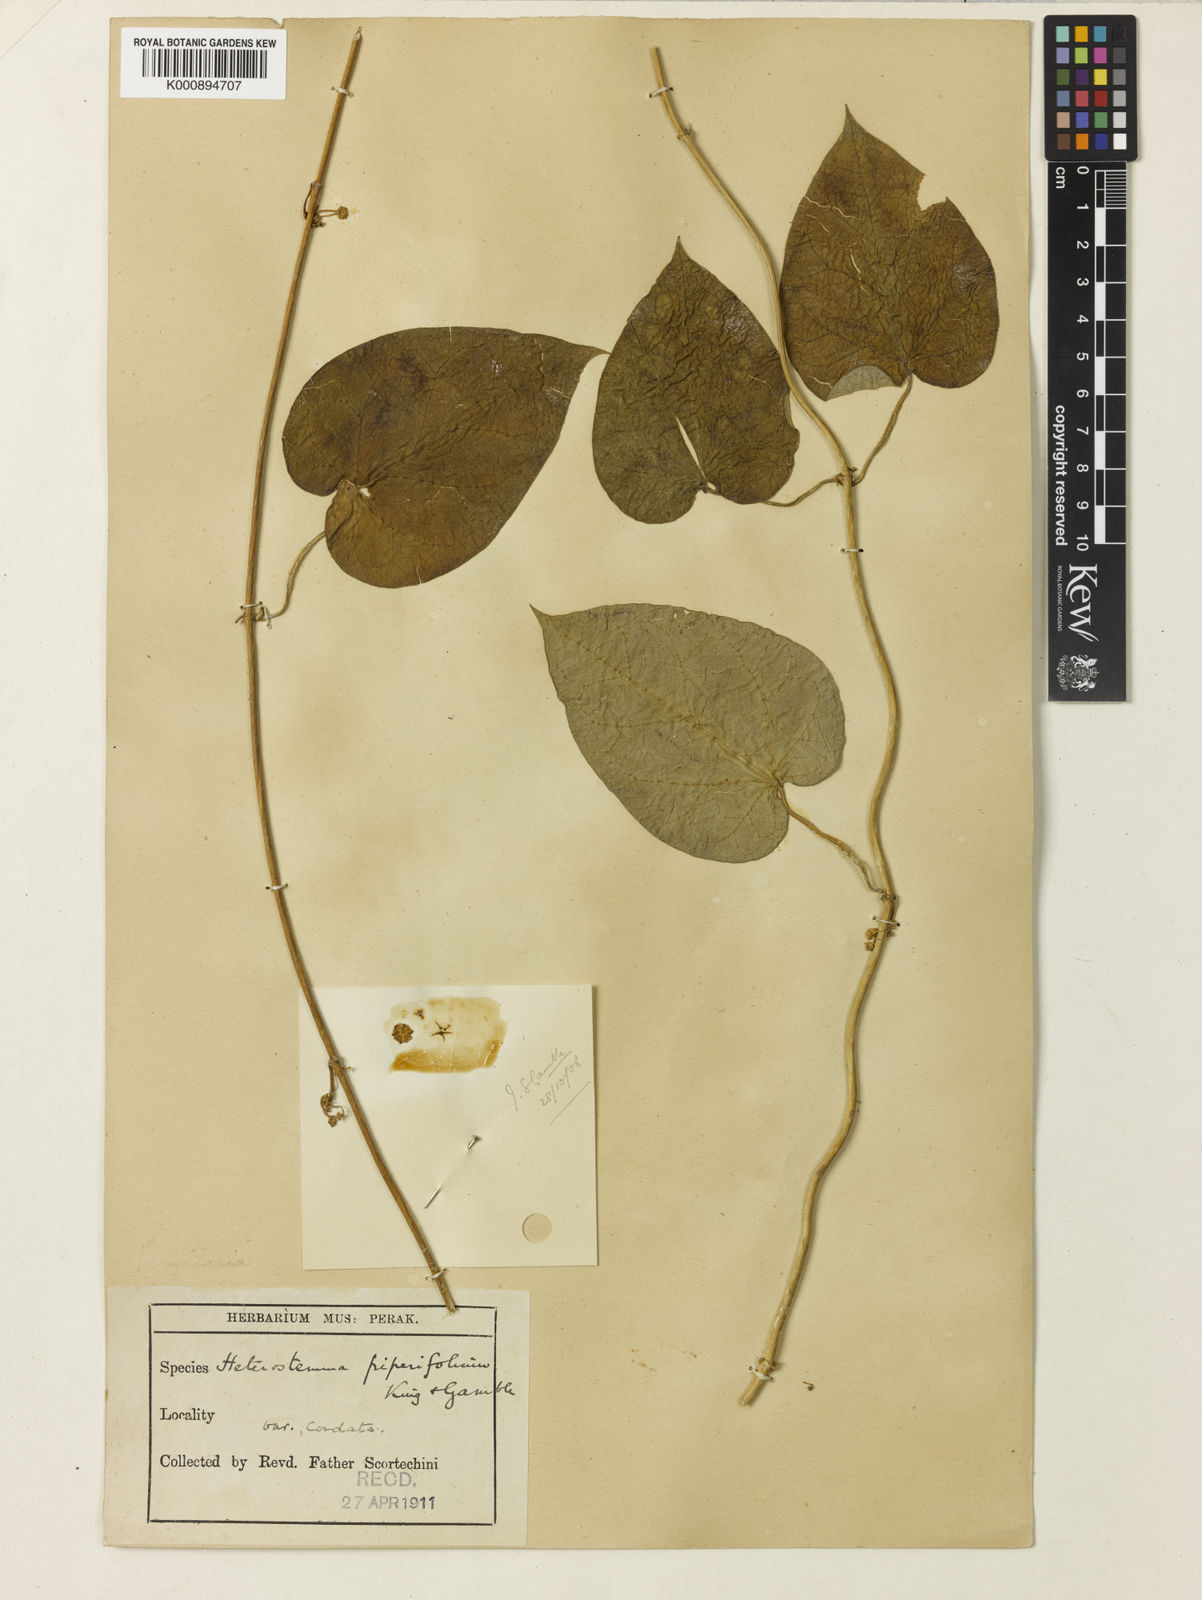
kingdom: Plantae
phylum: Tracheophyta
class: Magnoliopsida
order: Gentianales
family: Apocynaceae
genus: Heterostemma
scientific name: Heterostemma piperifolium
